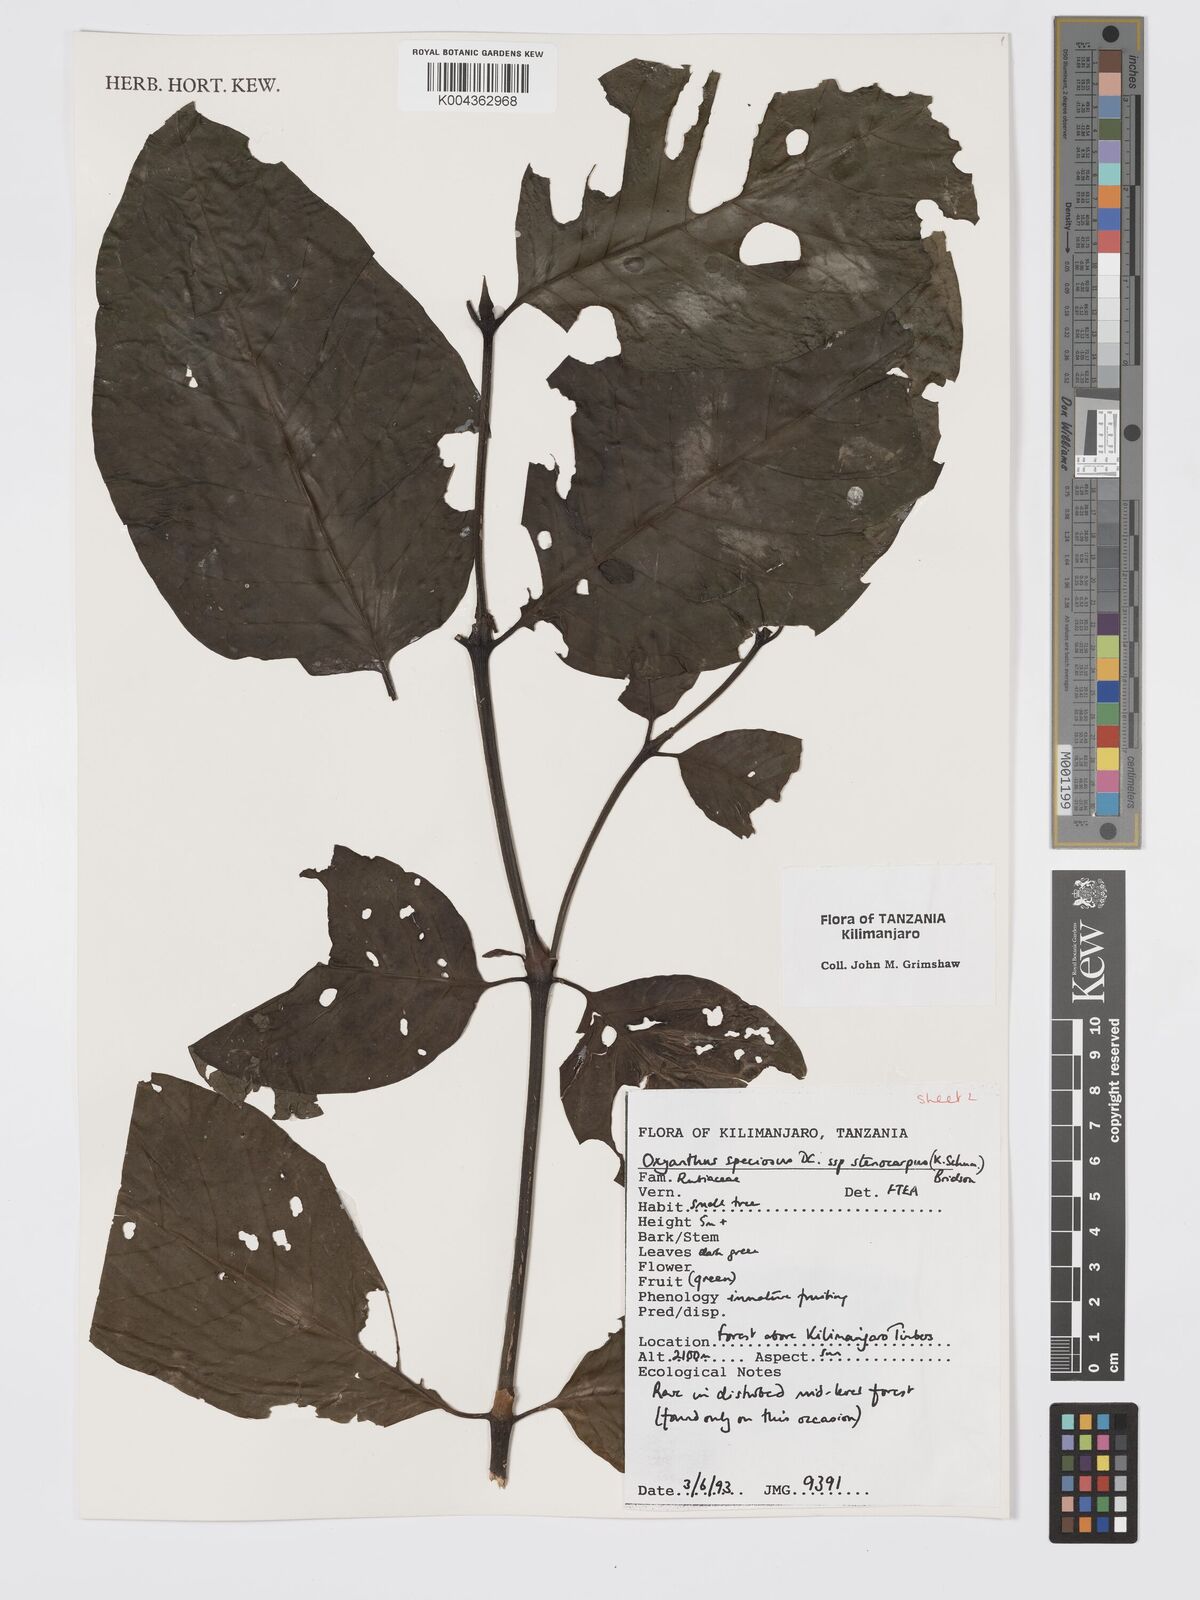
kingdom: Plantae
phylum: Tracheophyta
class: Magnoliopsida
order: Gentianales
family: Rubiaceae
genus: Oxyanthus
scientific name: Oxyanthus speciosus
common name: Whipstick loquat
